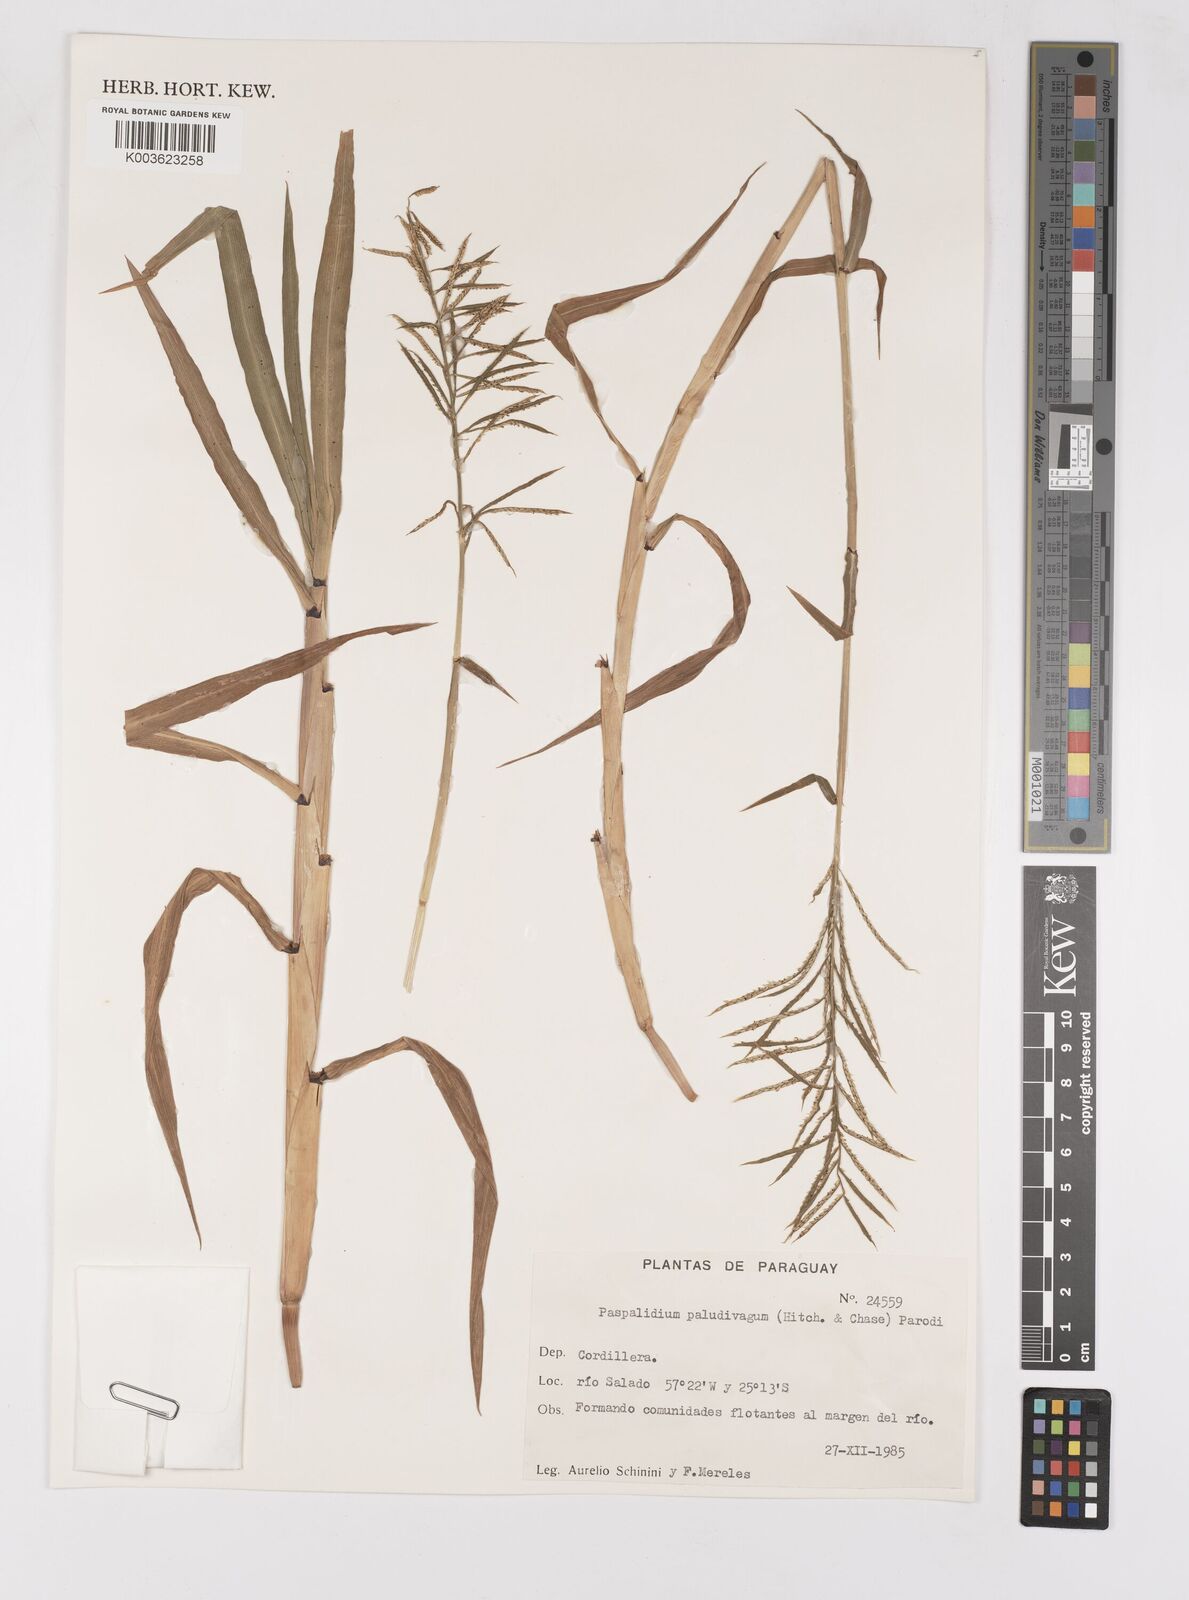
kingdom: Plantae
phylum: Tracheophyta
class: Liliopsida
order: Poales
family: Poaceae
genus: Paspalum
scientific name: Paspalum repens
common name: Water paspalum
